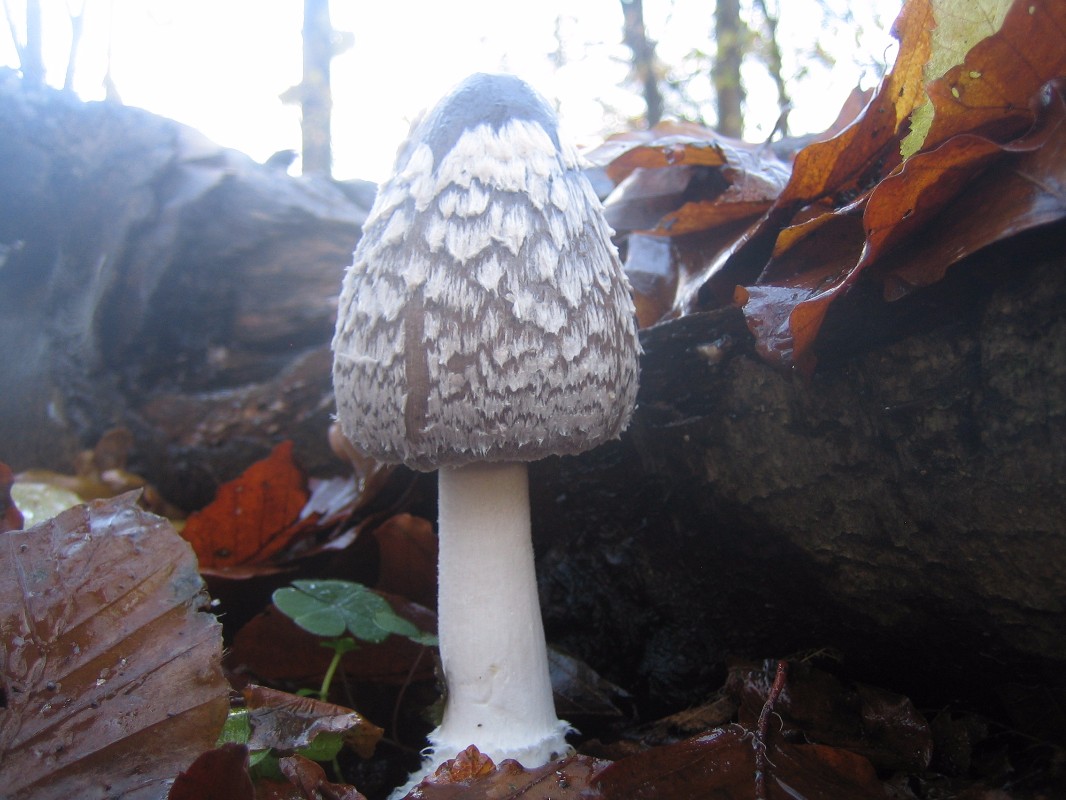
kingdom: Fungi
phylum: Basidiomycota
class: Agaricomycetes
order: Agaricales
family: Psathyrellaceae
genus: Coprinopsis
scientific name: Coprinopsis picacea
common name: skade-blækhat
